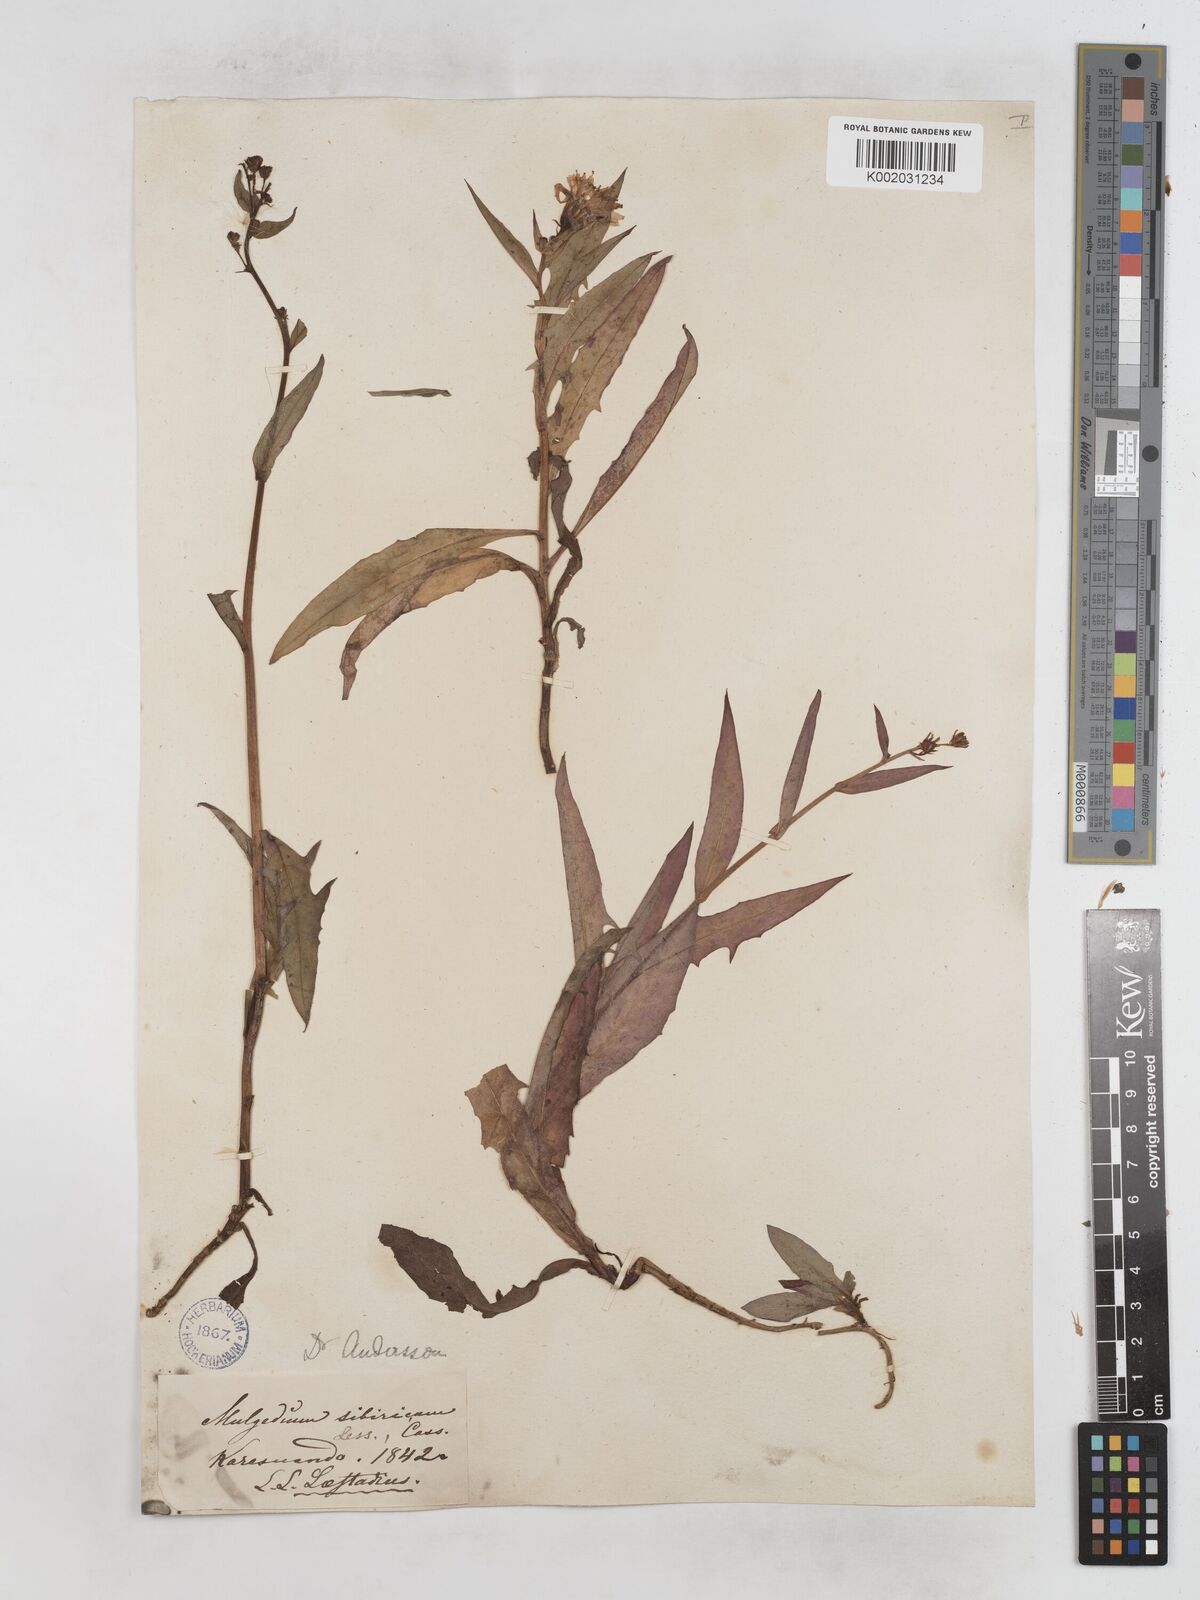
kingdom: Plantae
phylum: Tracheophyta
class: Magnoliopsida
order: Asterales
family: Asteraceae
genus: Lactuca
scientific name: Lactuca sibirica
